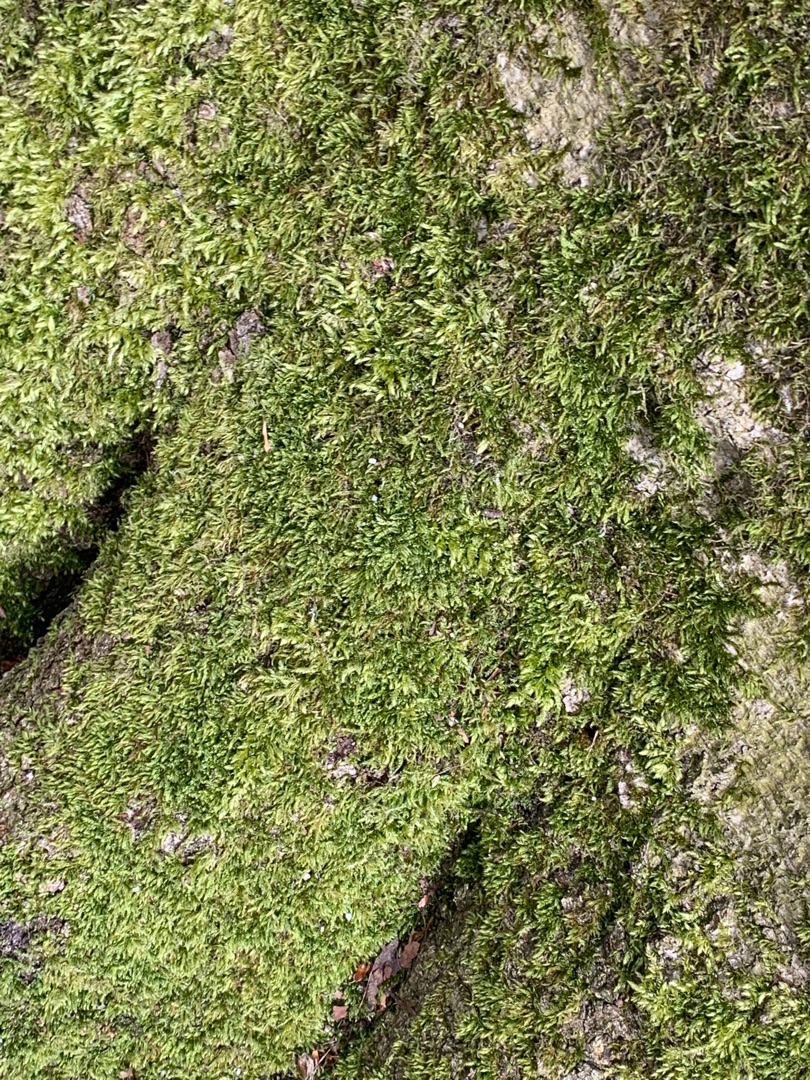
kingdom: Plantae
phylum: Bryophyta
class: Bryopsida
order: Hypnales
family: Hypnaceae
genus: Hypnum
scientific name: Hypnum cupressiforme
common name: Almindelig cypresmos
